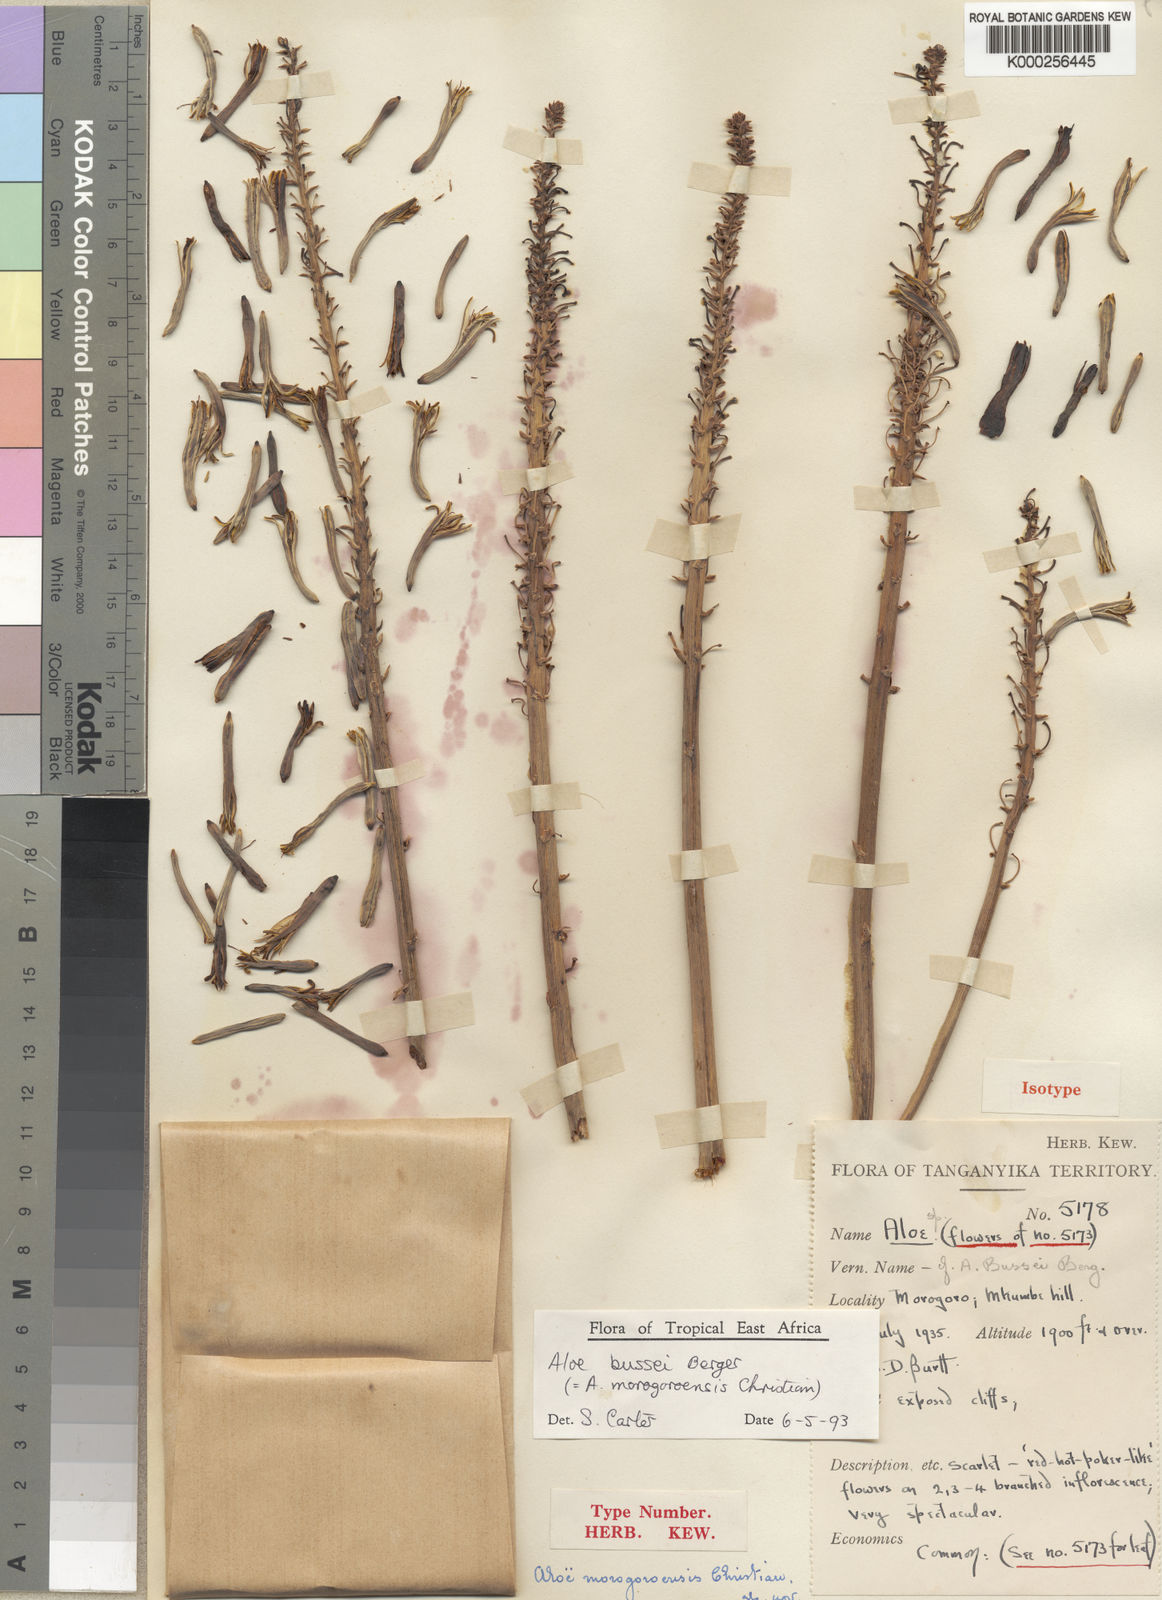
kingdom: Plantae
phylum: Tracheophyta
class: Liliopsida
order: Asparagales
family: Asphodelaceae
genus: Aloe
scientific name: Aloe bussei
